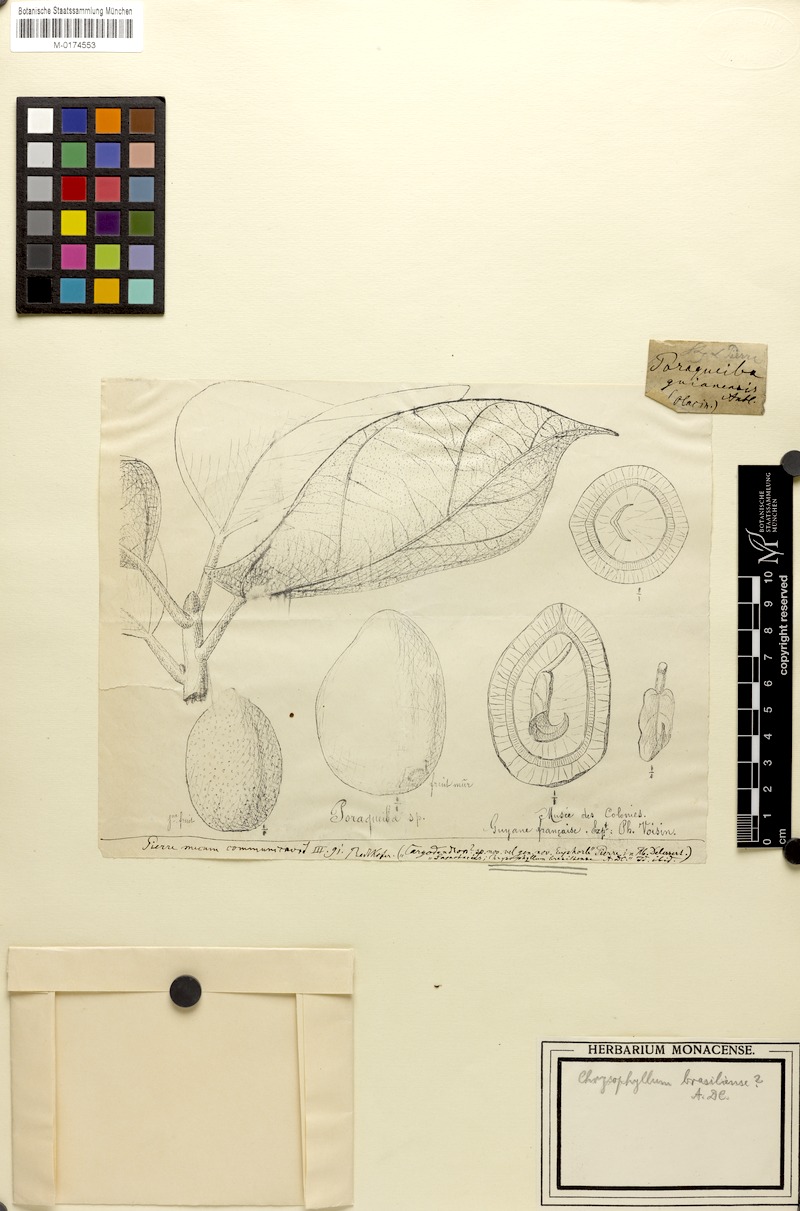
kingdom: Plantae
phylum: Tracheophyta
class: Magnoliopsida
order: Ericales
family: Sapotaceae
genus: Sarcaulus
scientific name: Sarcaulus brasiliensis
